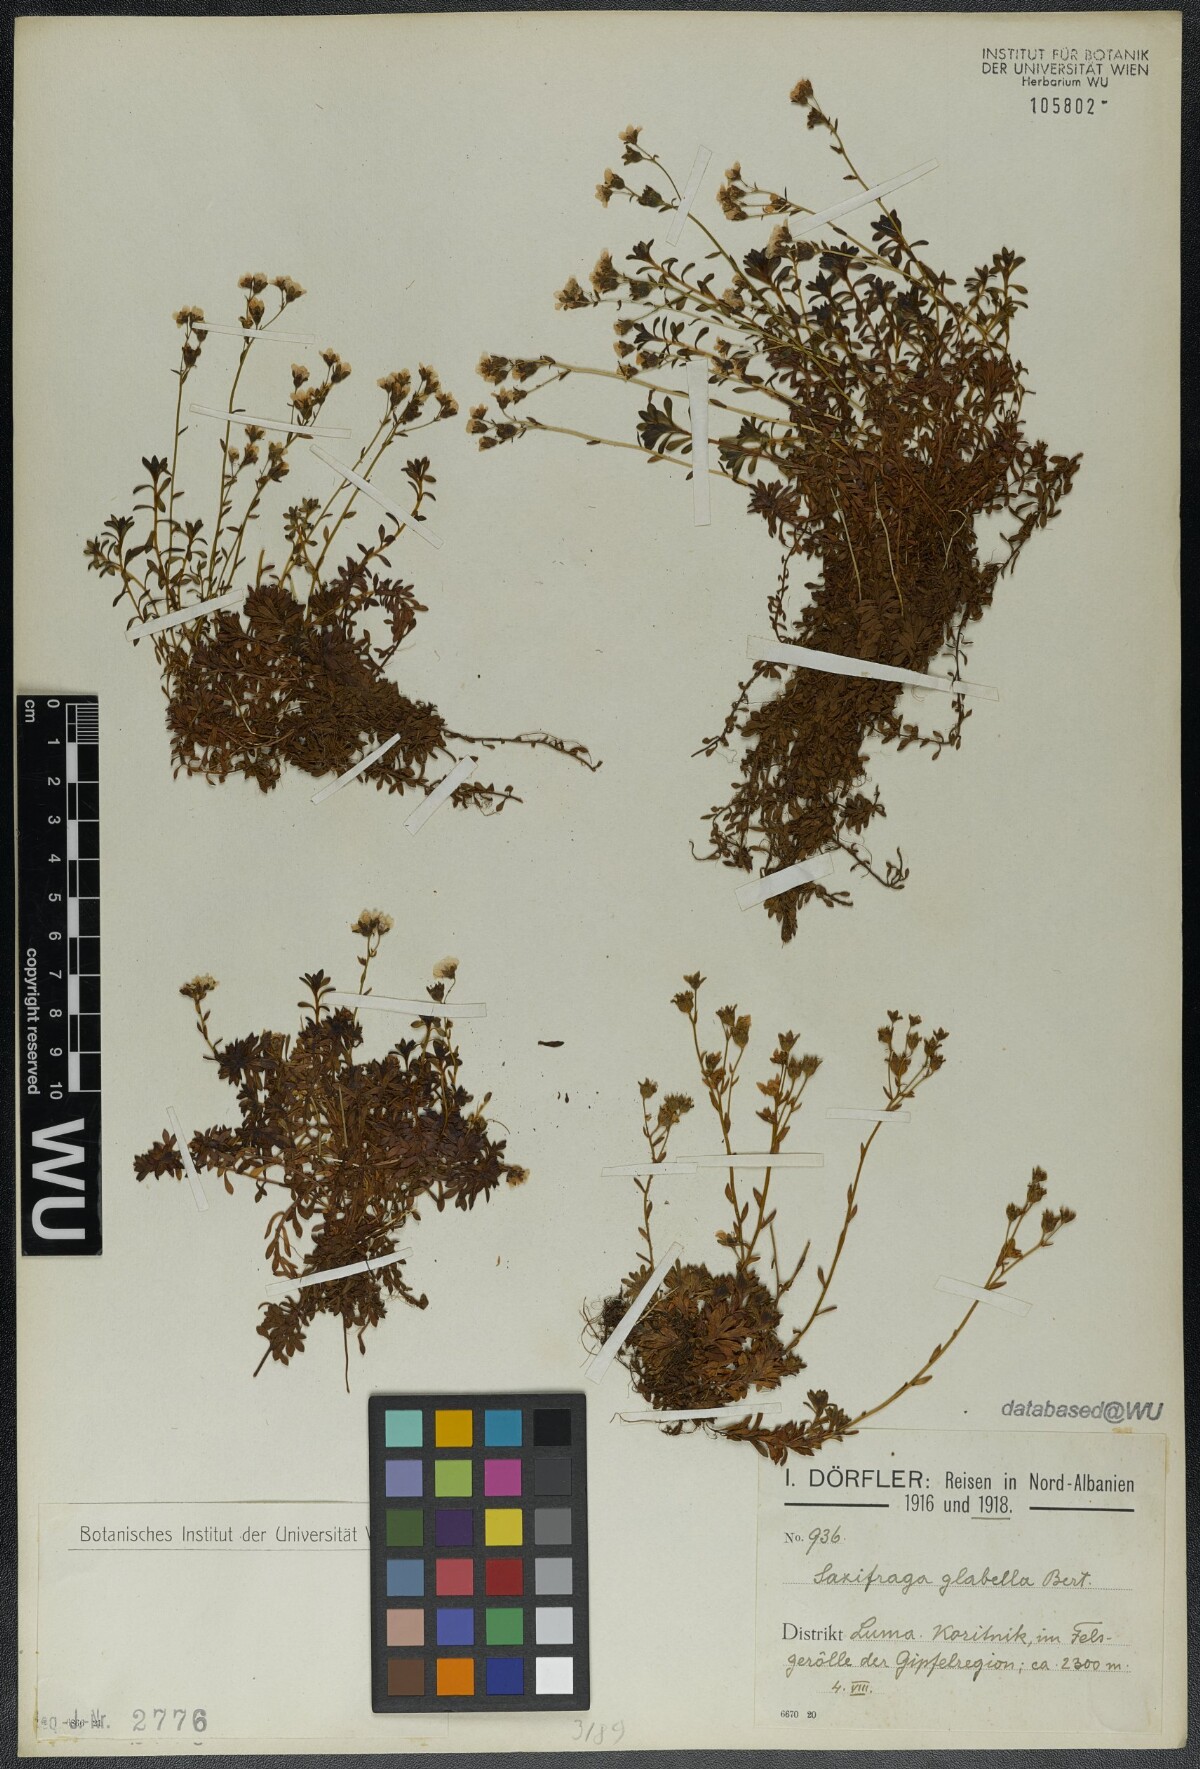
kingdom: Plantae
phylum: Tracheophyta
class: Magnoliopsida
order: Saxifragales
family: Saxifragaceae
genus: Saxifraga
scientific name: Saxifraga glabella
